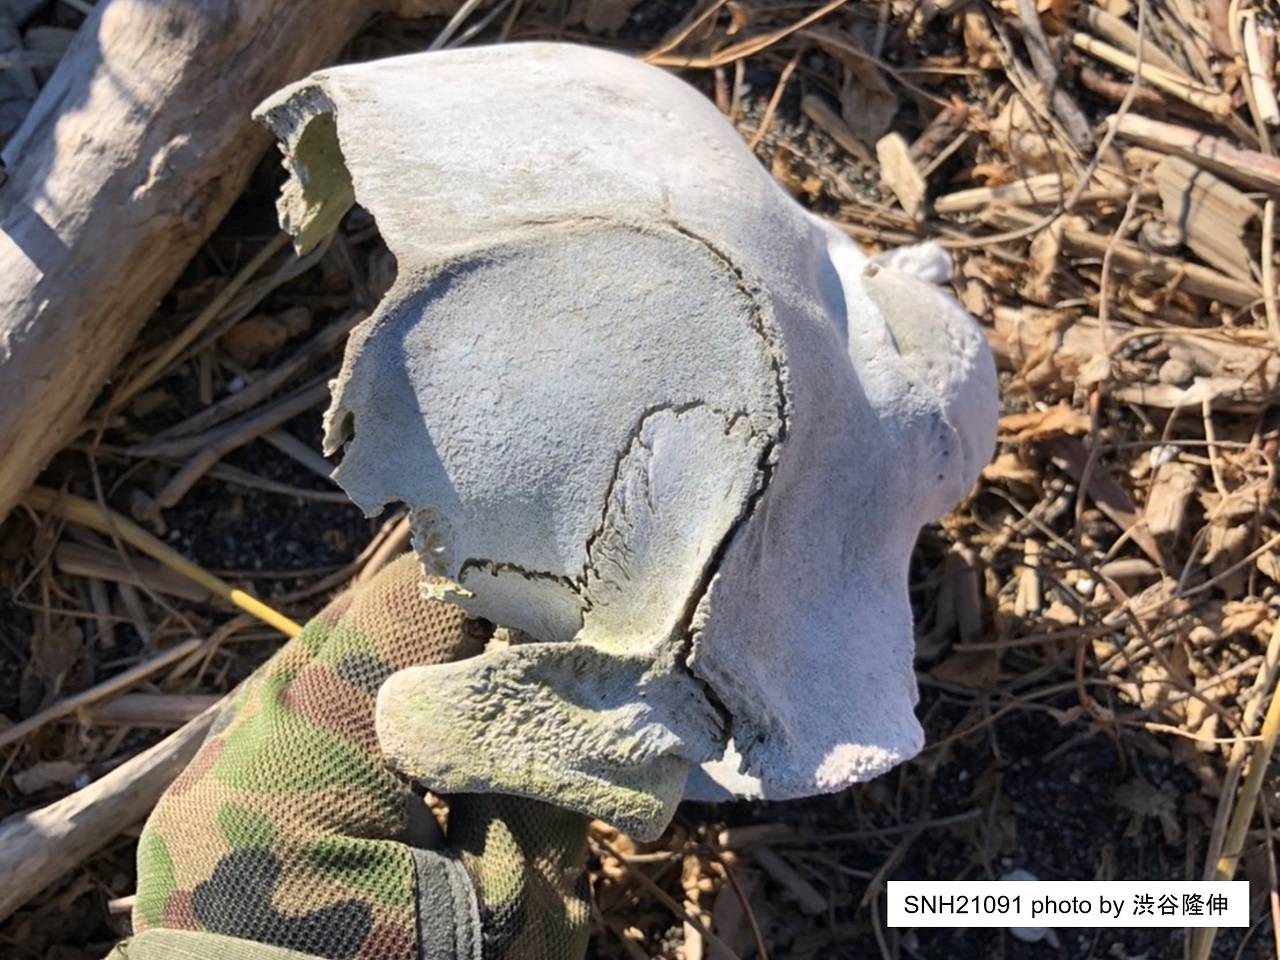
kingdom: Animalia
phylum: Chordata
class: Mammalia
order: Cetacea
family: Delphinidae
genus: Lagenorhynchus
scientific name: Lagenorhynchus obliquidens
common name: Pacific white-sided dolphin
